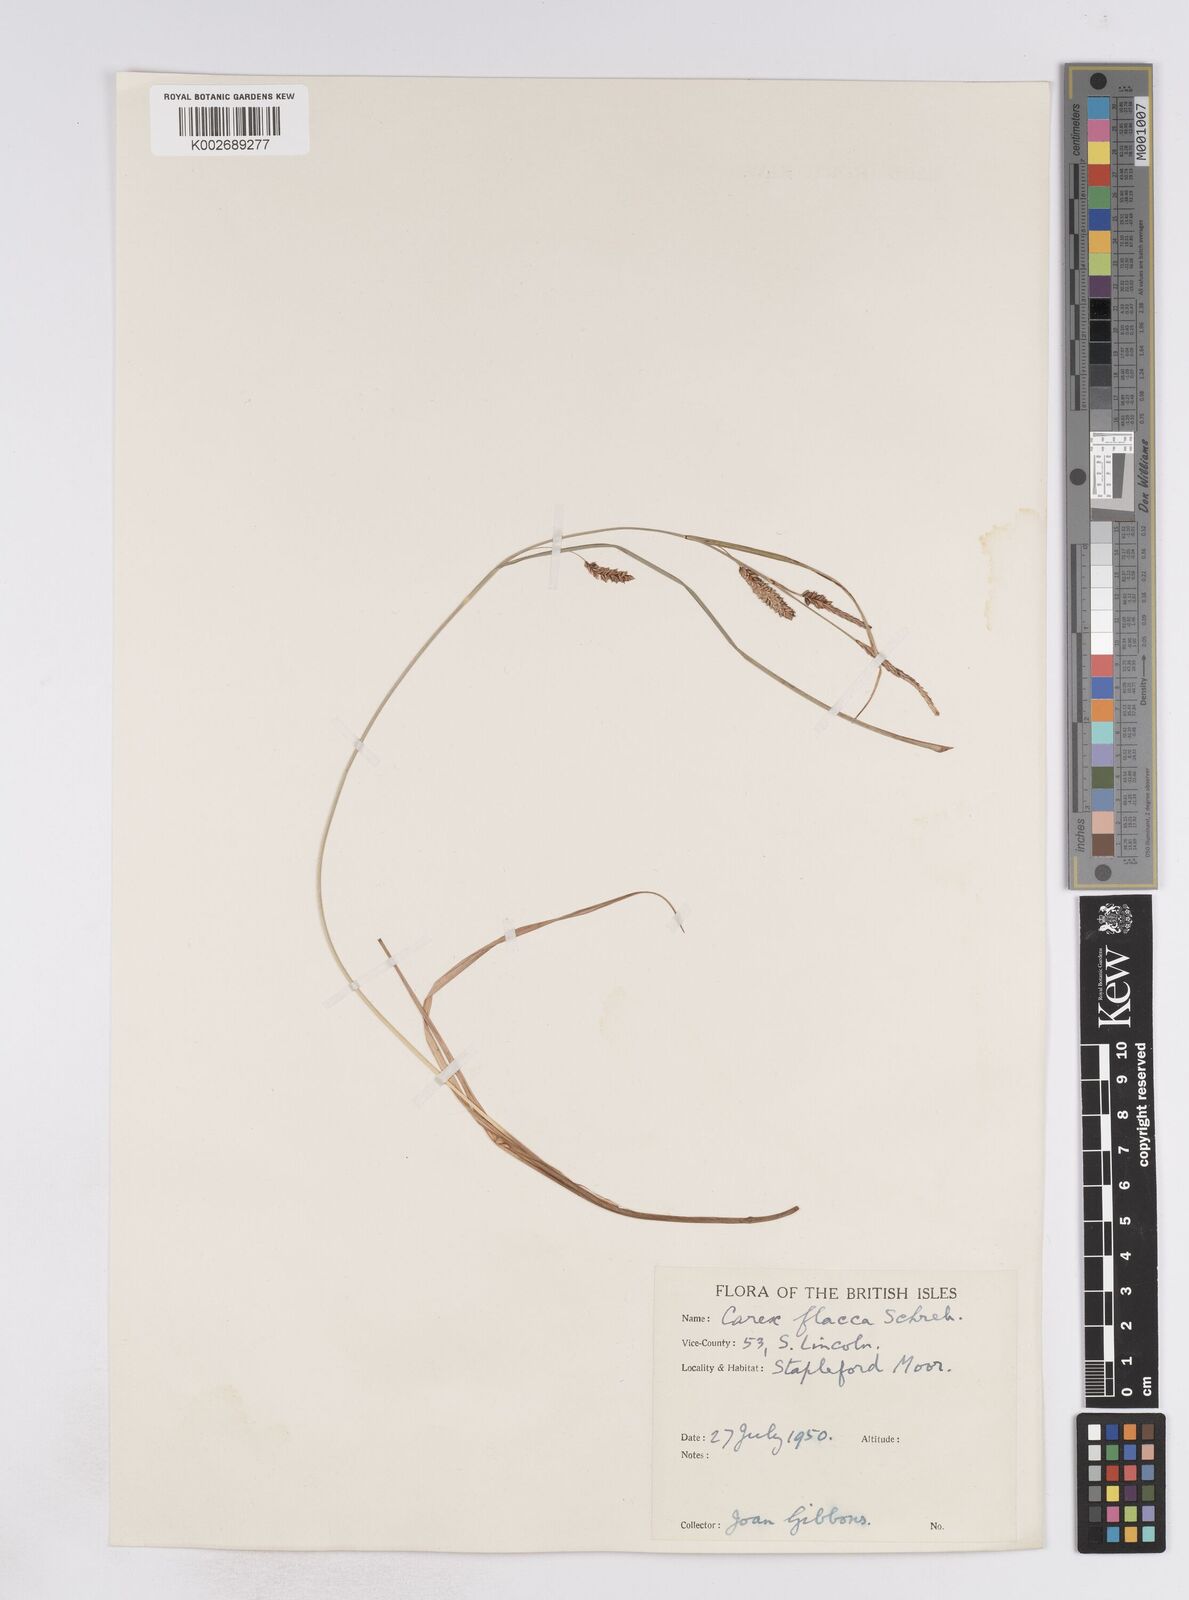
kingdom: Plantae
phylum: Tracheophyta
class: Liliopsida
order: Poales
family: Cyperaceae
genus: Carex
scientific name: Carex flacca
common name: Glaucous sedge
